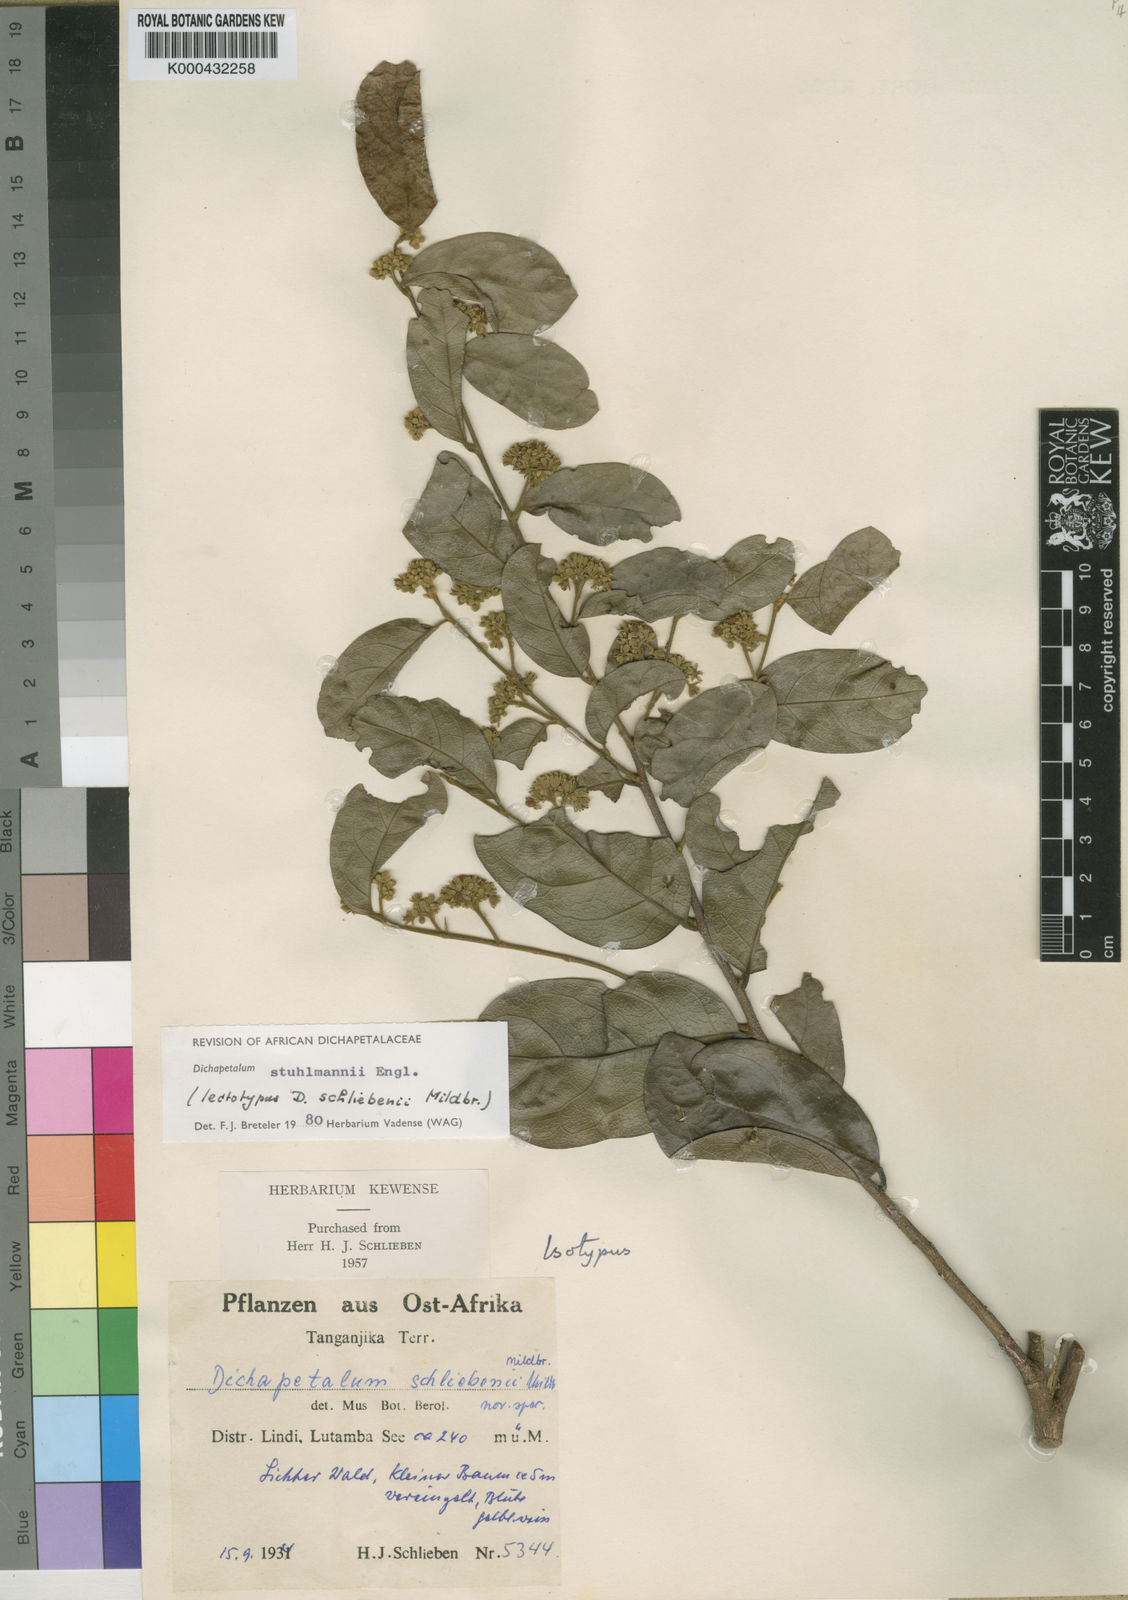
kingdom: Plantae
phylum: Tracheophyta
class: Magnoliopsida
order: Malpighiales
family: Dichapetalaceae
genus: Dichapetalum
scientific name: Dichapetalum stuhlmannii
